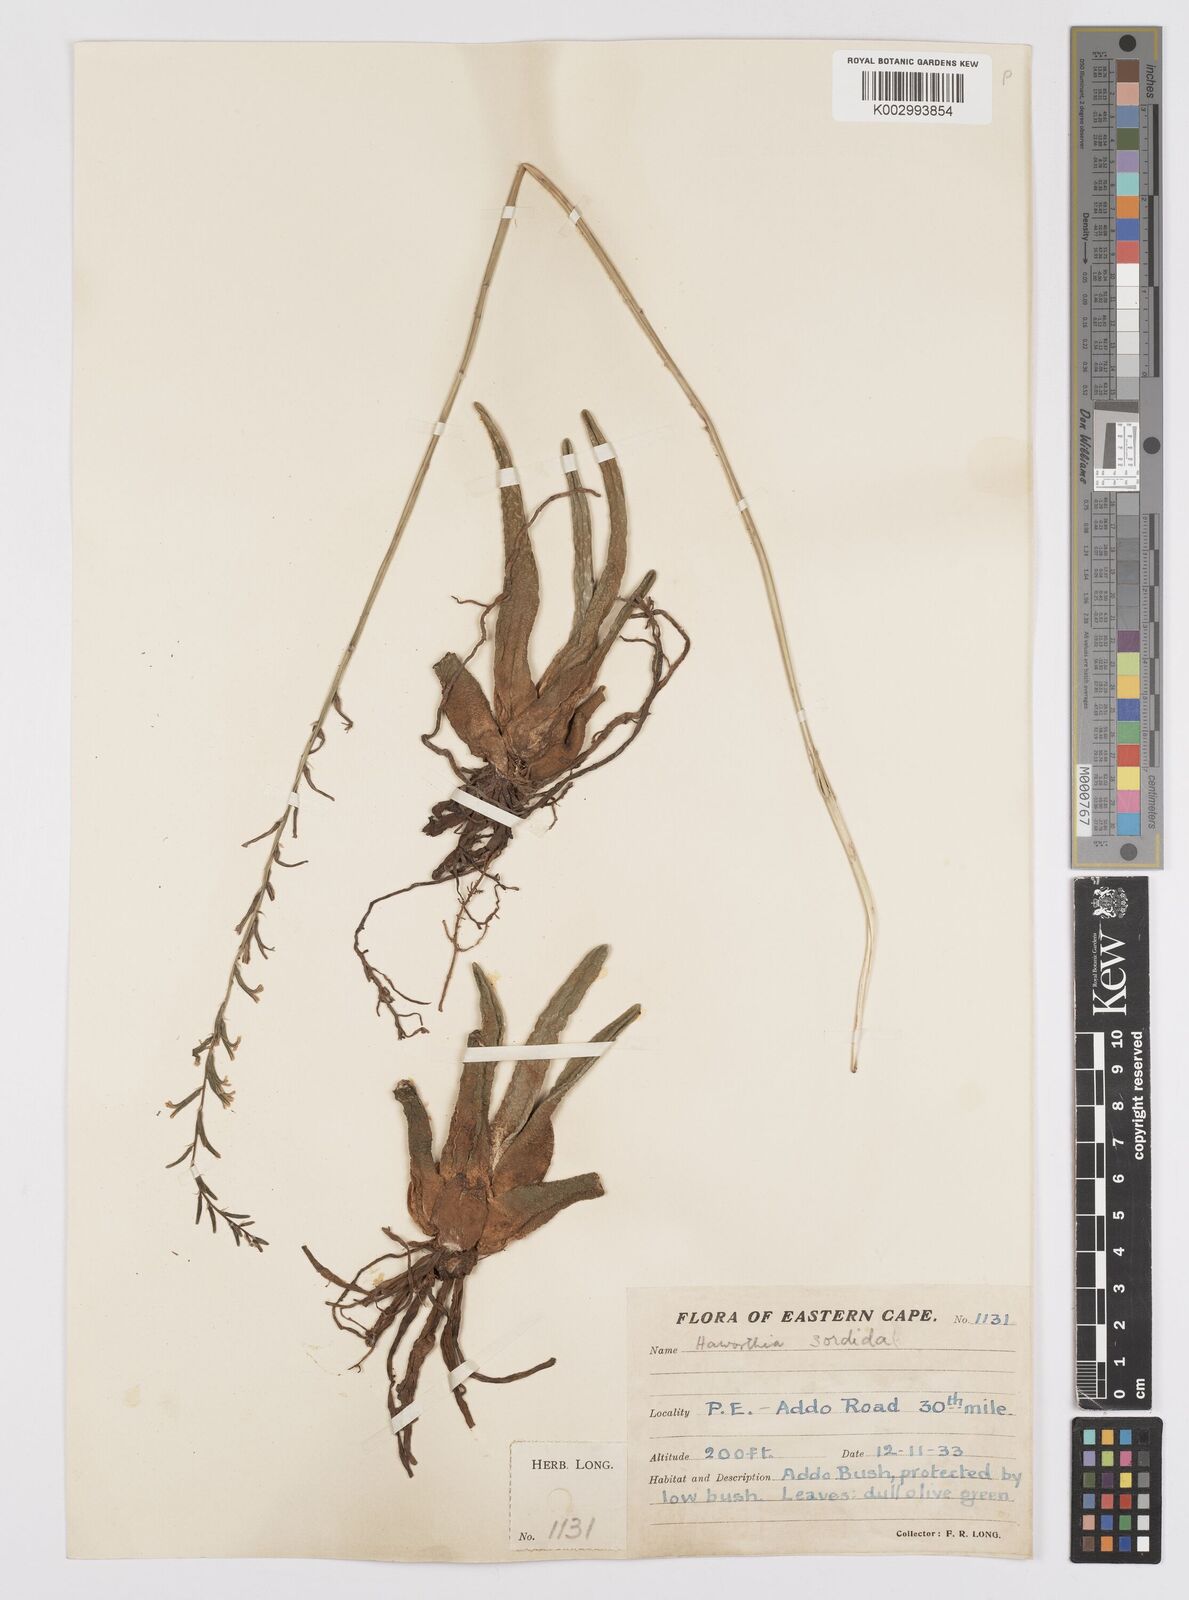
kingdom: Plantae
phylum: Tracheophyta
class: Liliopsida
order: Asparagales
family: Asphodelaceae
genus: Haworthia
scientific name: Haworthia arachnoidea
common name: Cobweb-aloe
